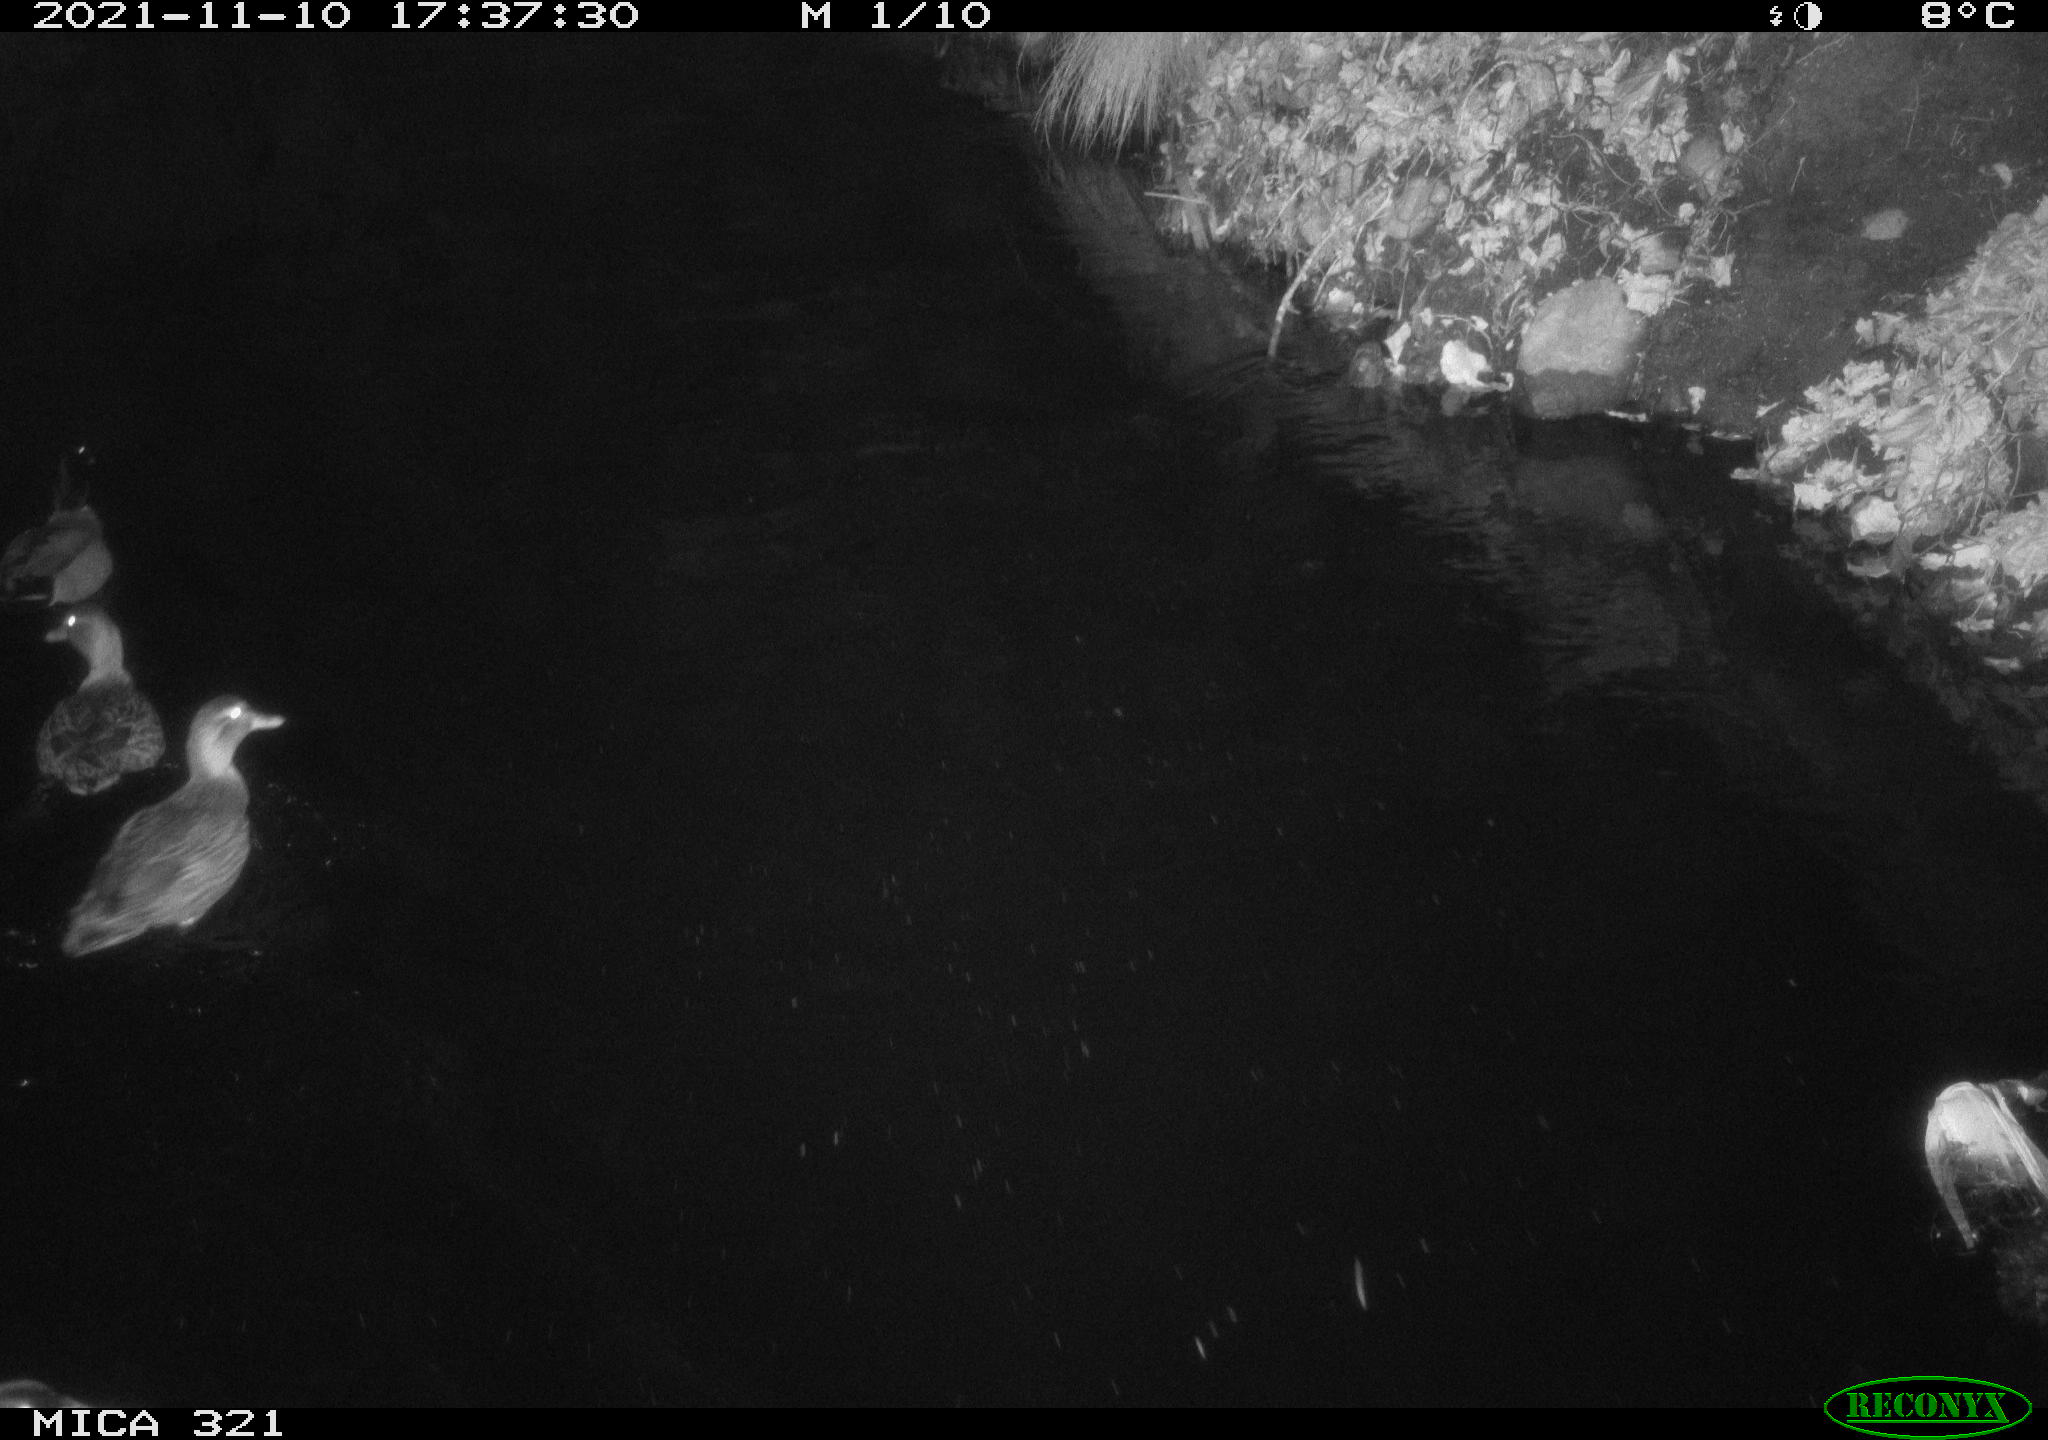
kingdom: Animalia
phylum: Chordata
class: Aves
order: Anseriformes
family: Anatidae
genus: Anas
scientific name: Anas platyrhynchos
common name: Mallard
